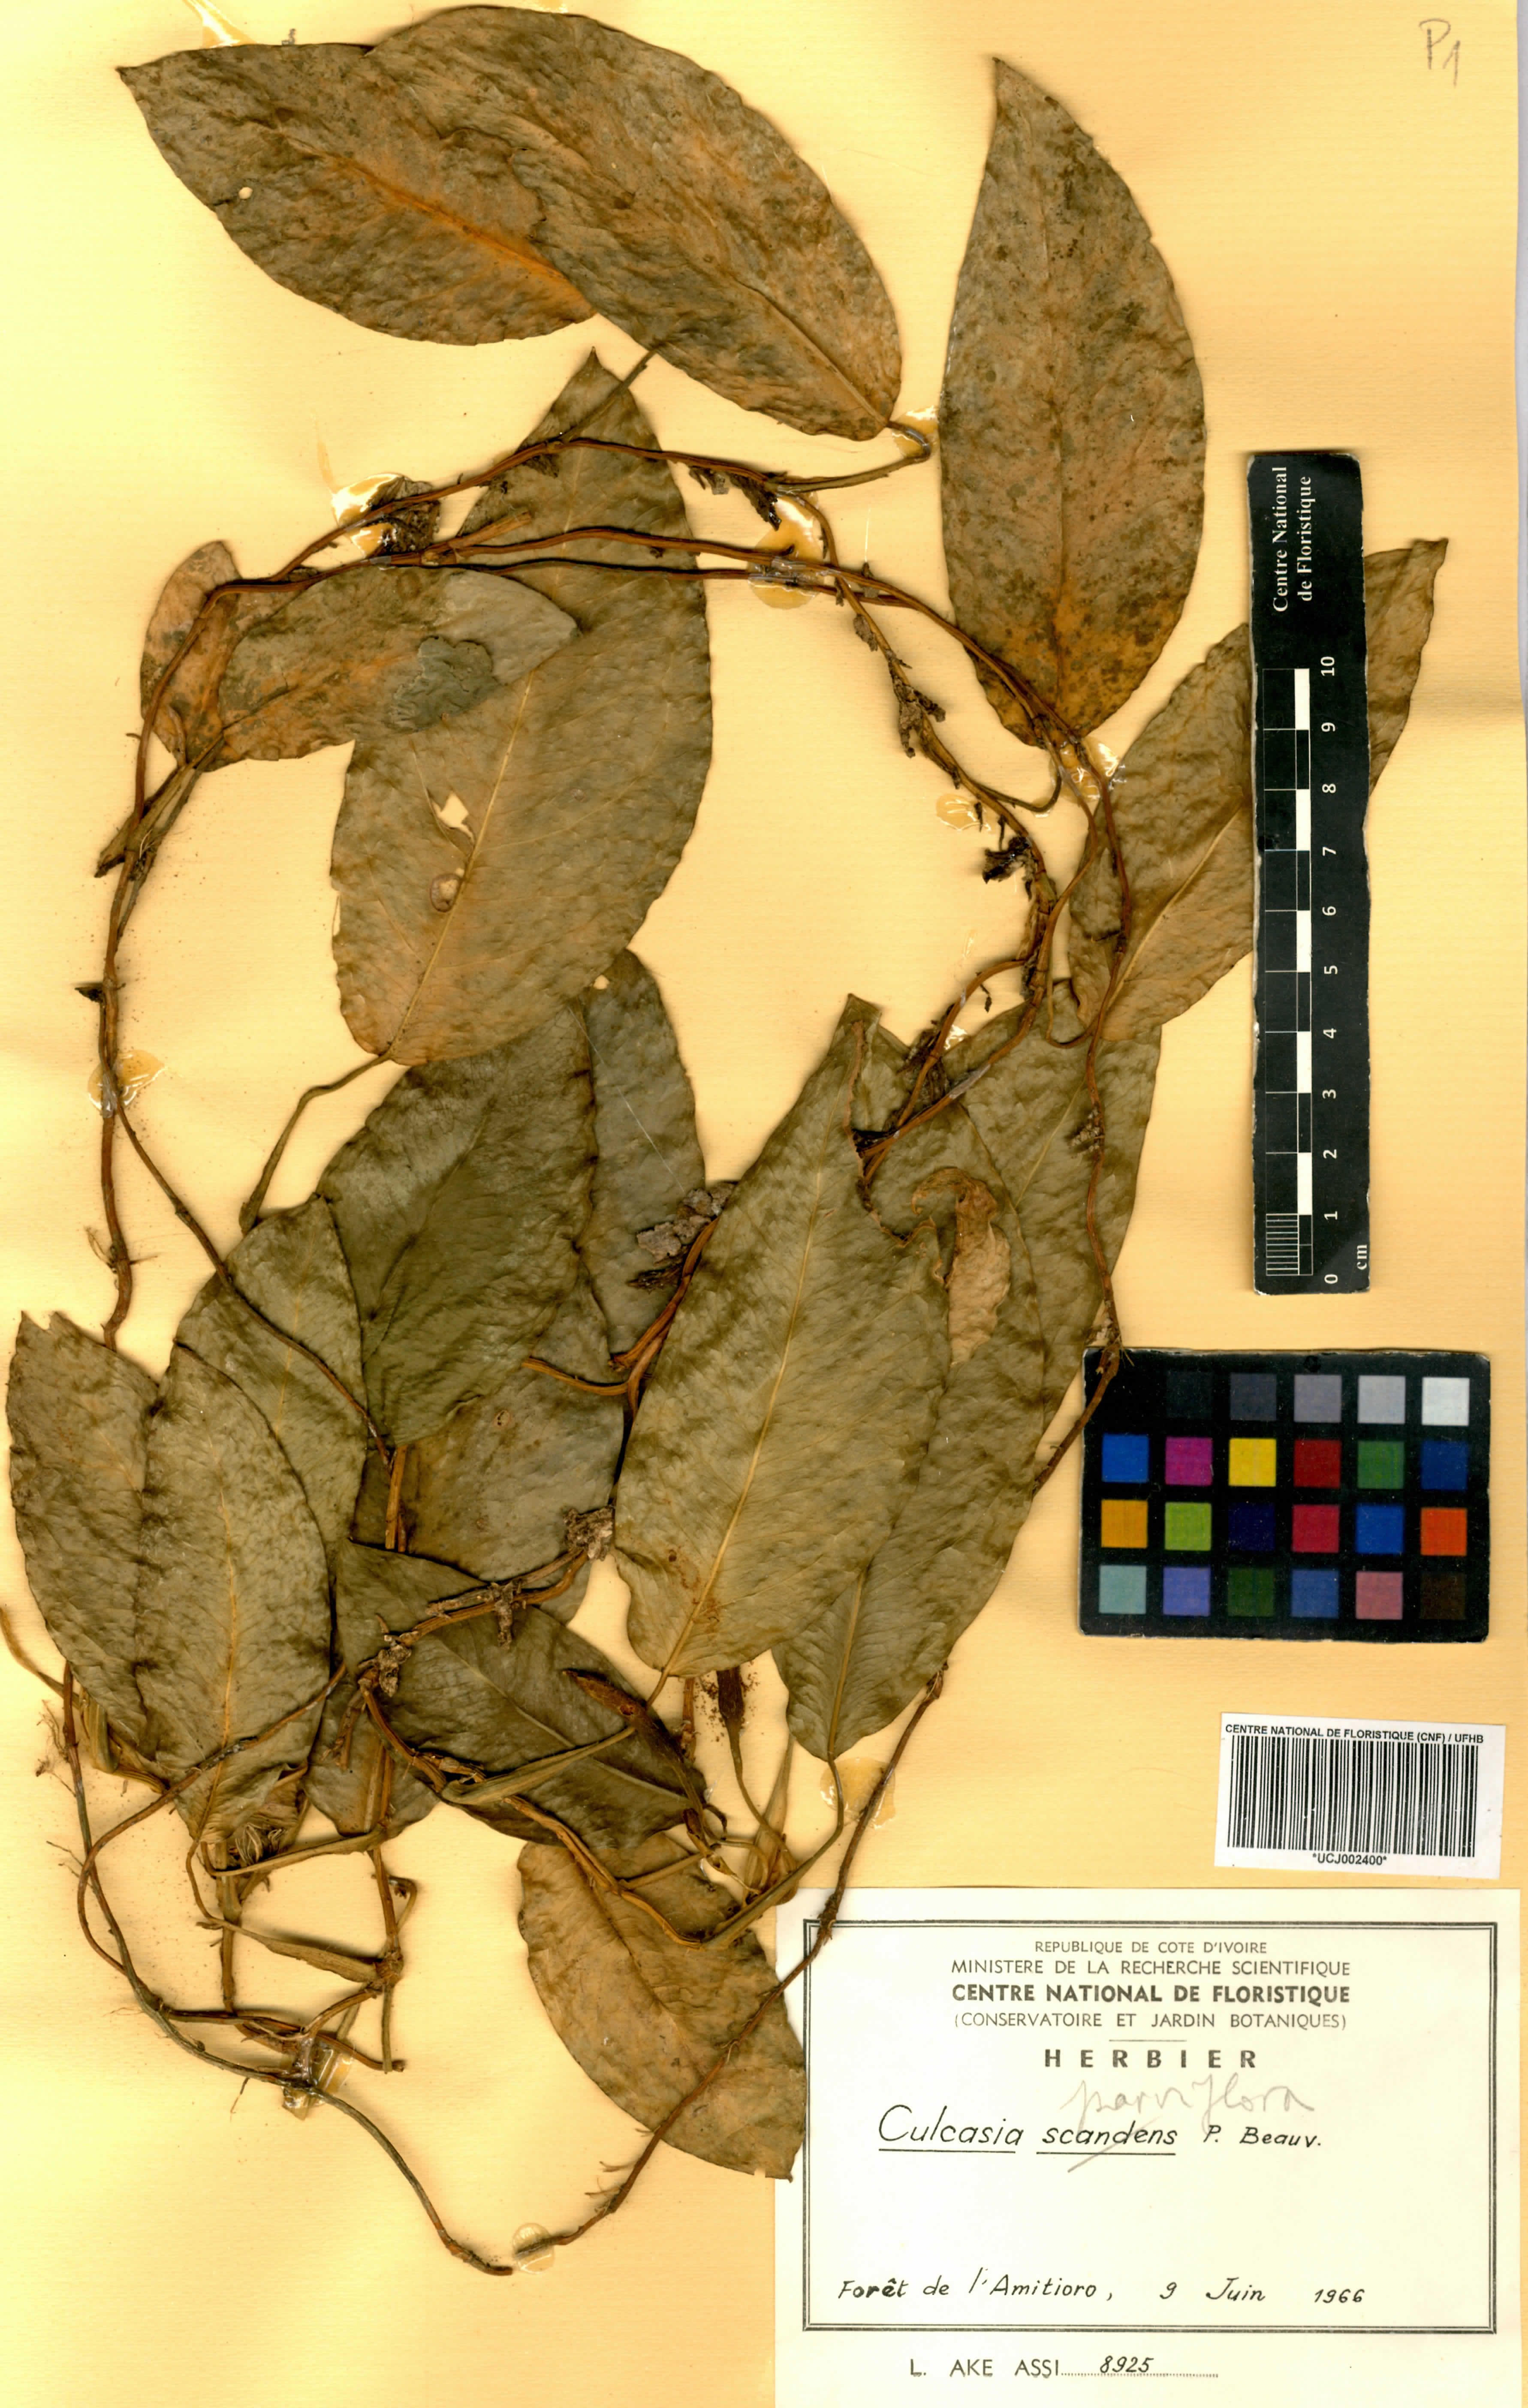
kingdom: Plantae
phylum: Tracheophyta
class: Liliopsida
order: Alismatales
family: Araceae
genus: Culcasia
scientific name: Culcasia parviflora
